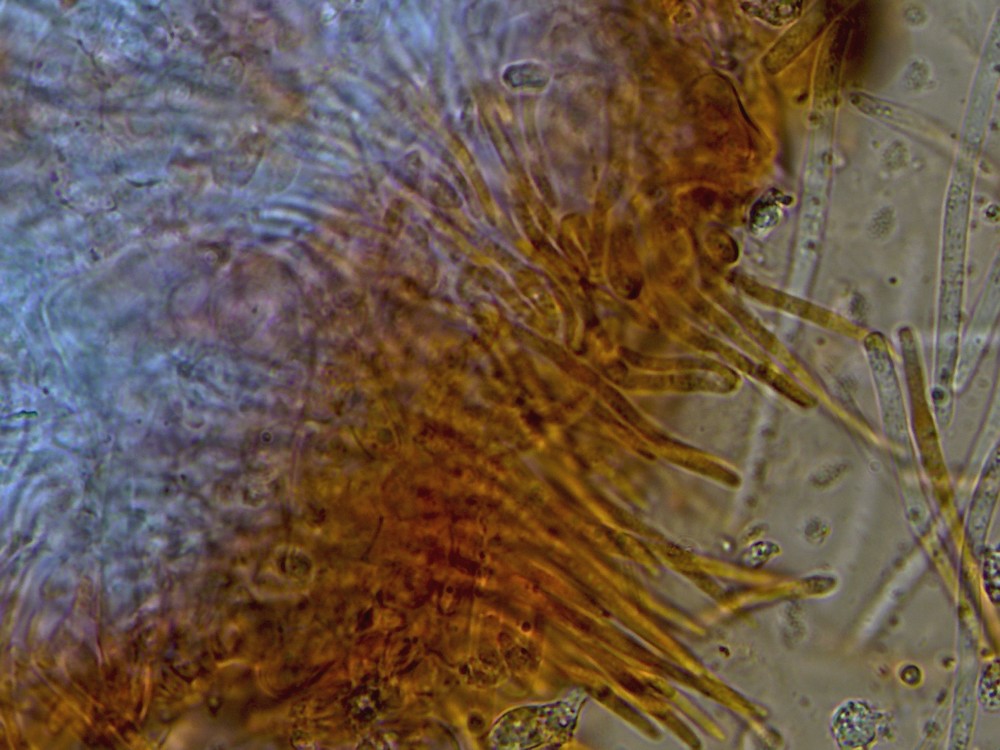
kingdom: Fungi
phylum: Ascomycota
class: Dothideomycetes
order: Mycosphaerellales
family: Mycosphaerellaceae
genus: Septoria
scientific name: Septoria stellariae
